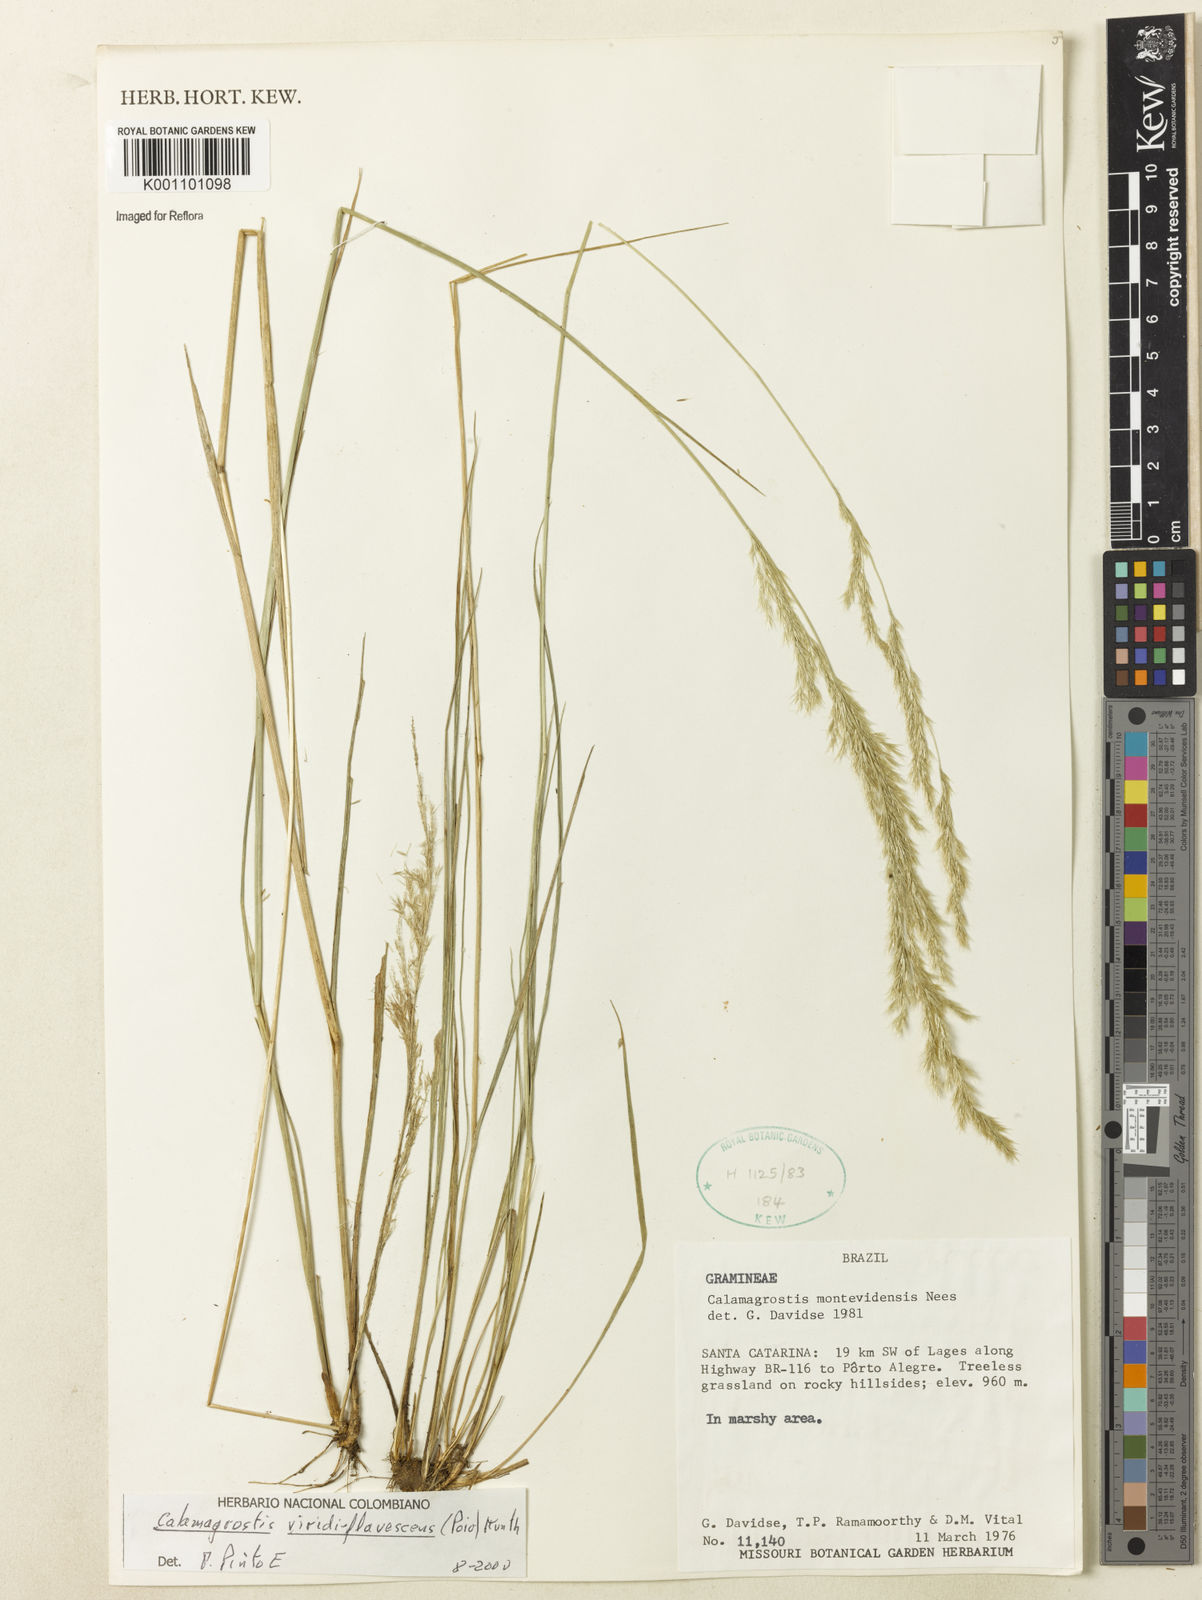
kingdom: Plantae
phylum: Tracheophyta
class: Liliopsida
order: Poales
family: Poaceae
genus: Cinnagrostis
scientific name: Cinnagrostis viridiflavescens
